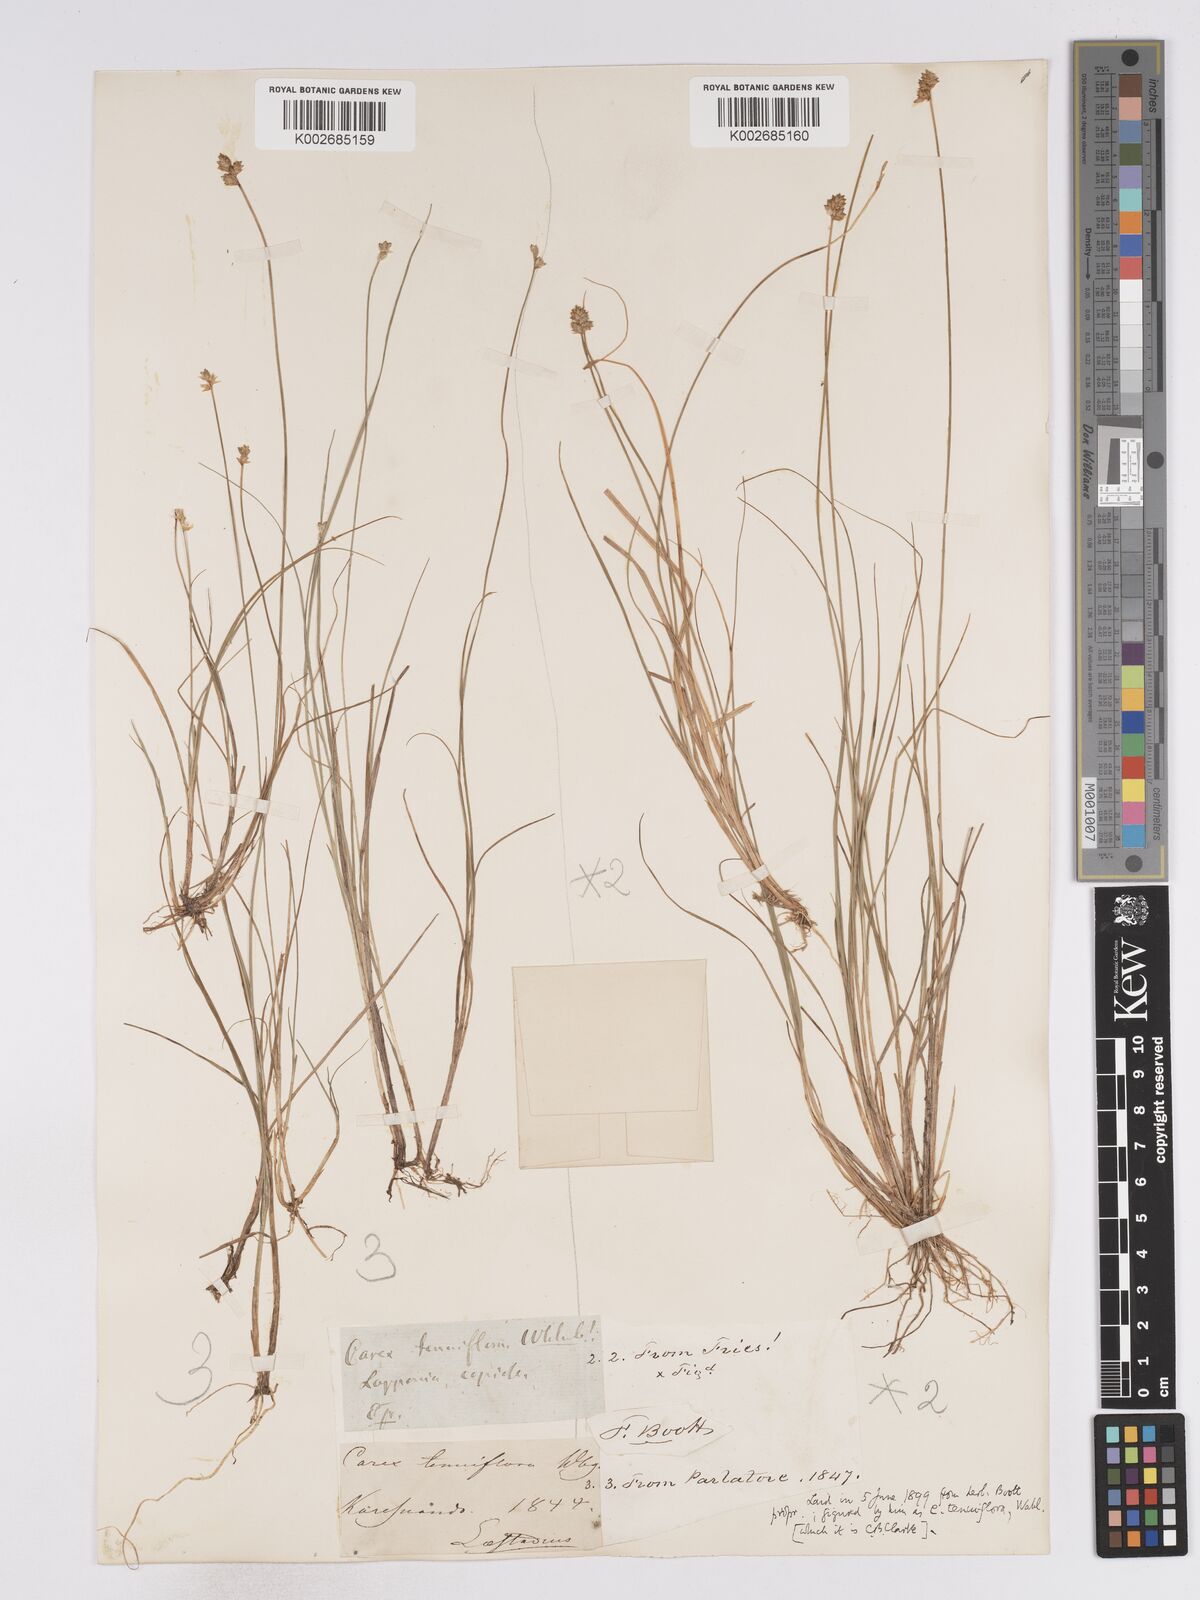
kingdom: Plantae
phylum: Tracheophyta
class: Liliopsida
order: Poales
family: Cyperaceae
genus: Carex
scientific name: Carex tenuiflora
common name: Sparse-flowered sedge
